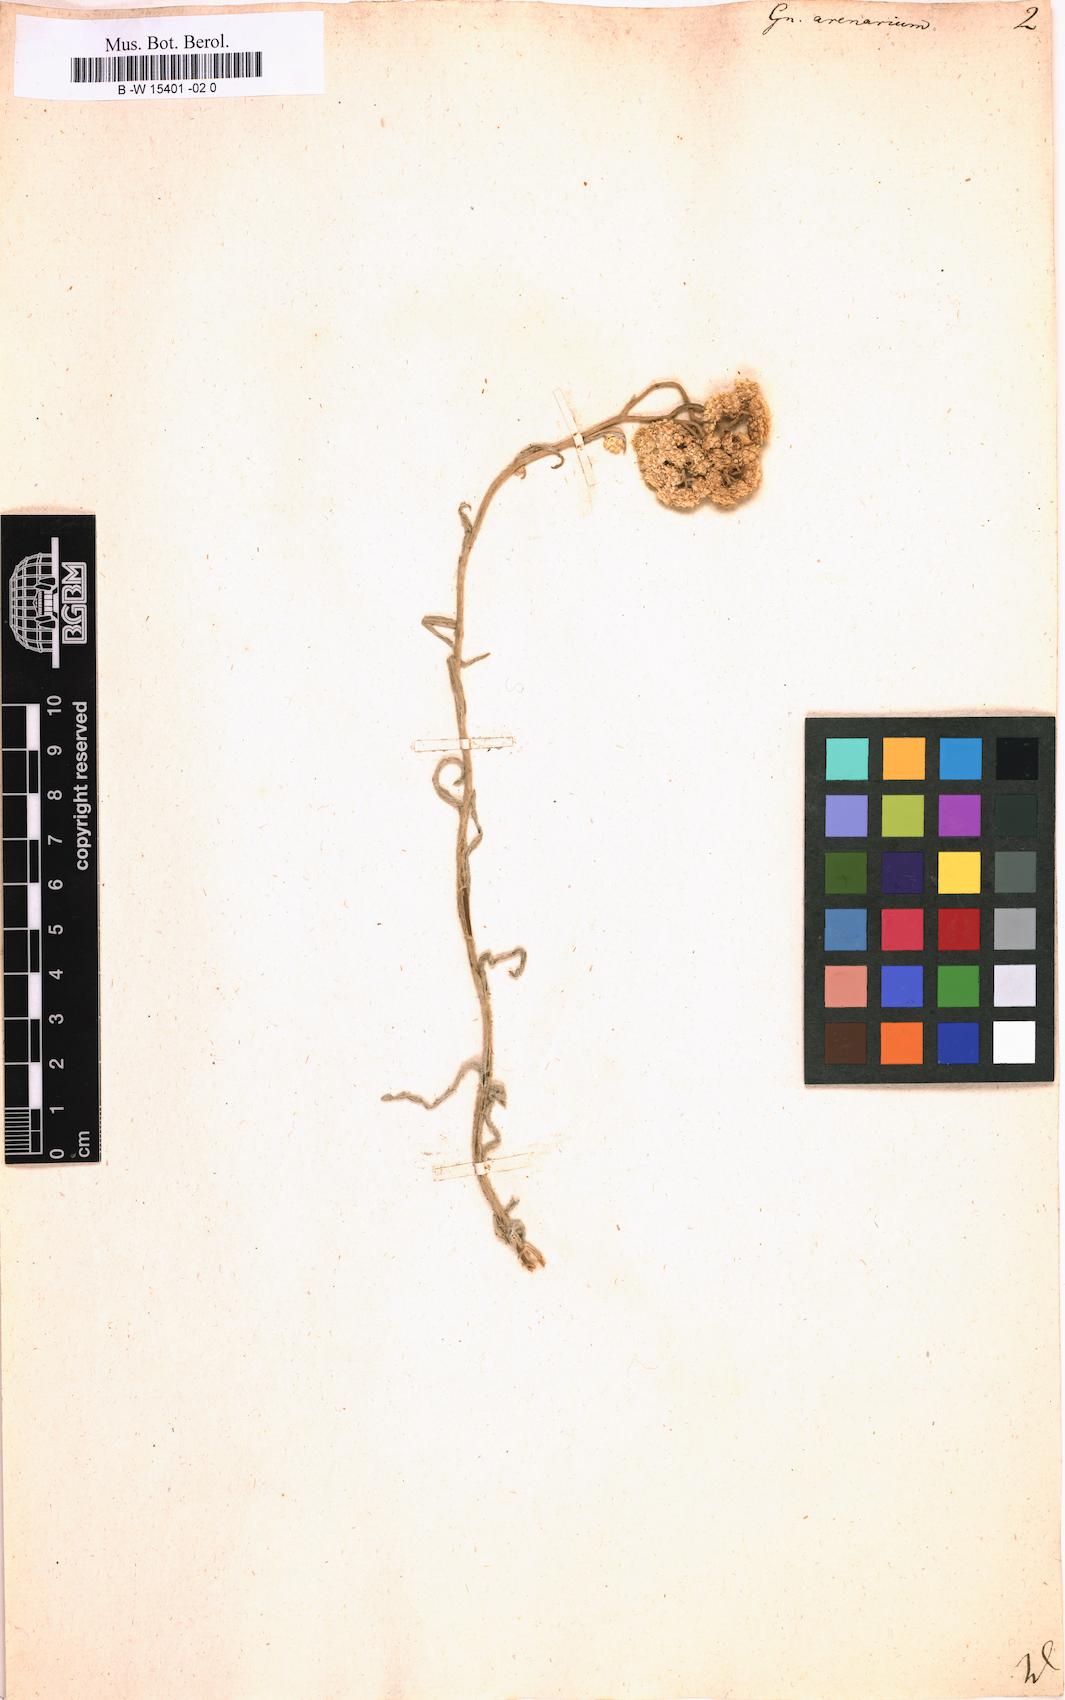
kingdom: Plantae
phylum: Tracheophyta
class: Magnoliopsida
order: Asterales
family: Asteraceae
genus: Helichrysum
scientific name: Helichrysum arenarium
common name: Strawflower
